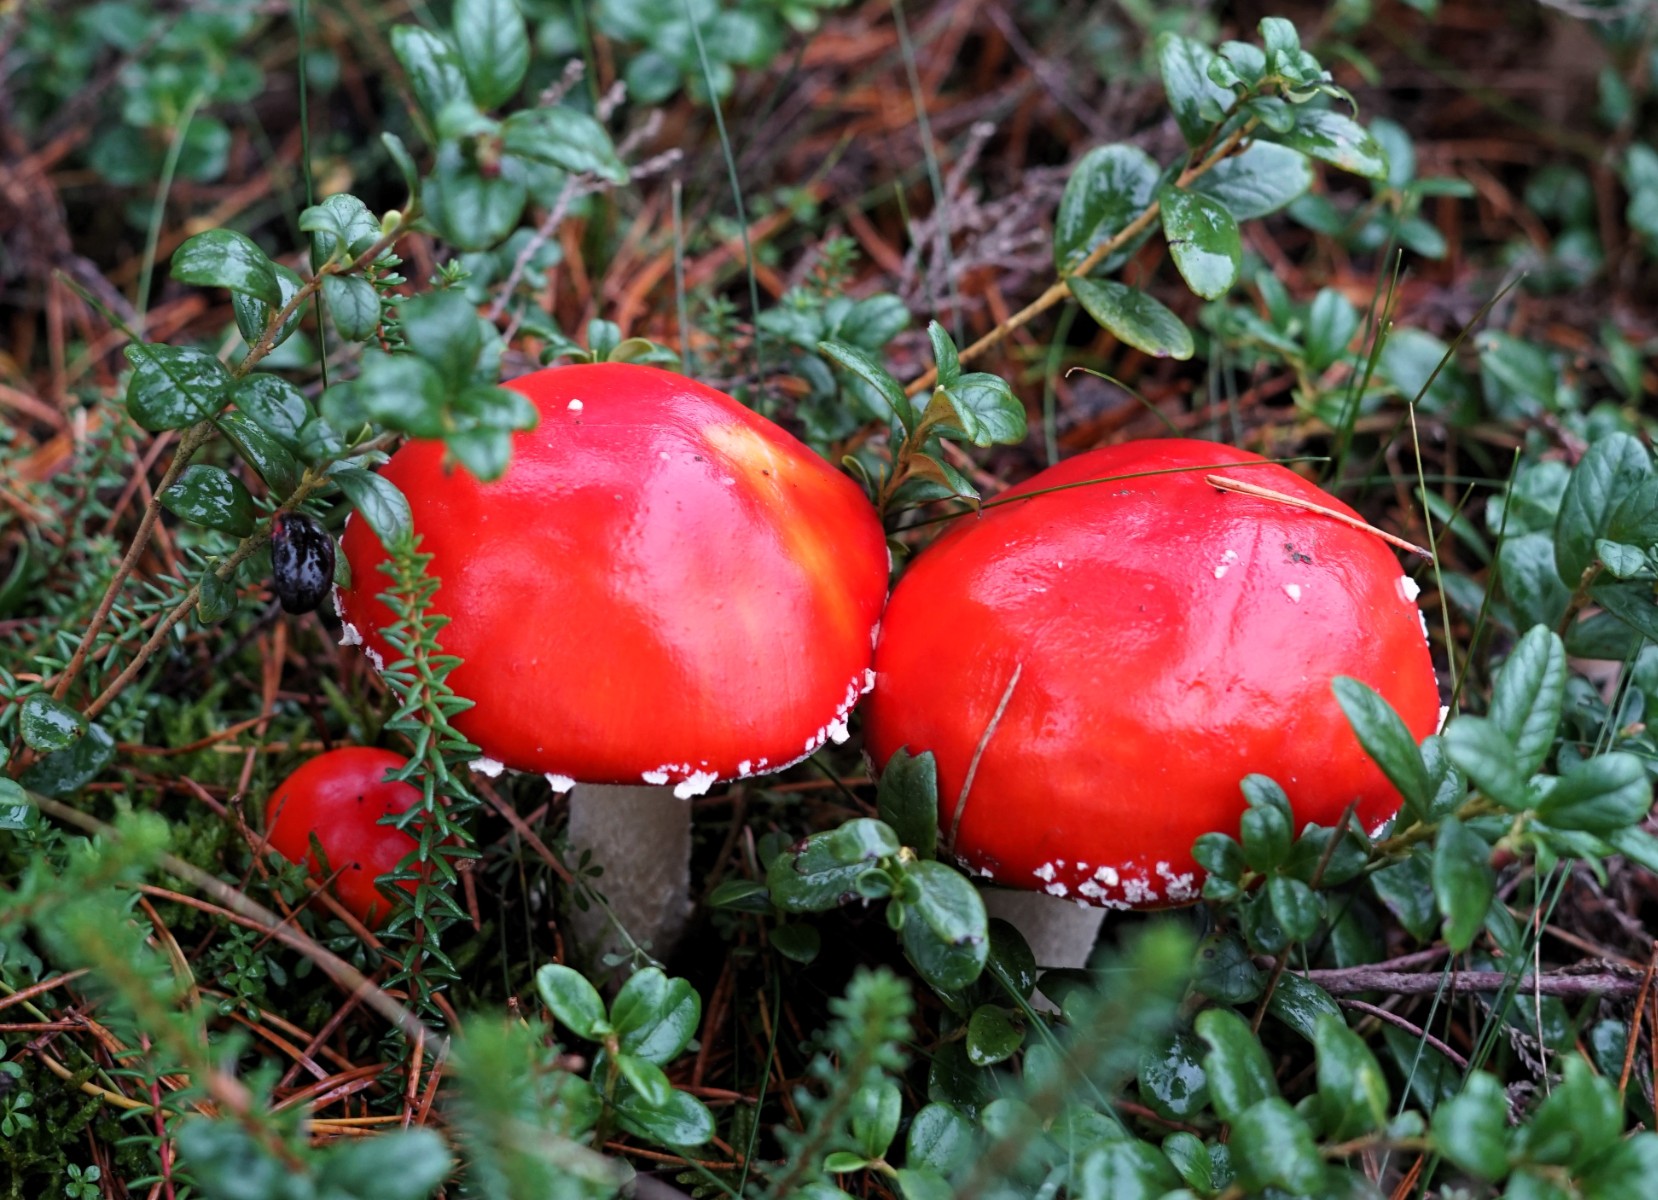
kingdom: Fungi
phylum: Basidiomycota
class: Agaricomycetes
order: Agaricales
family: Amanitaceae
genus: Amanita
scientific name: Amanita muscaria
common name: rød fluesvamp
